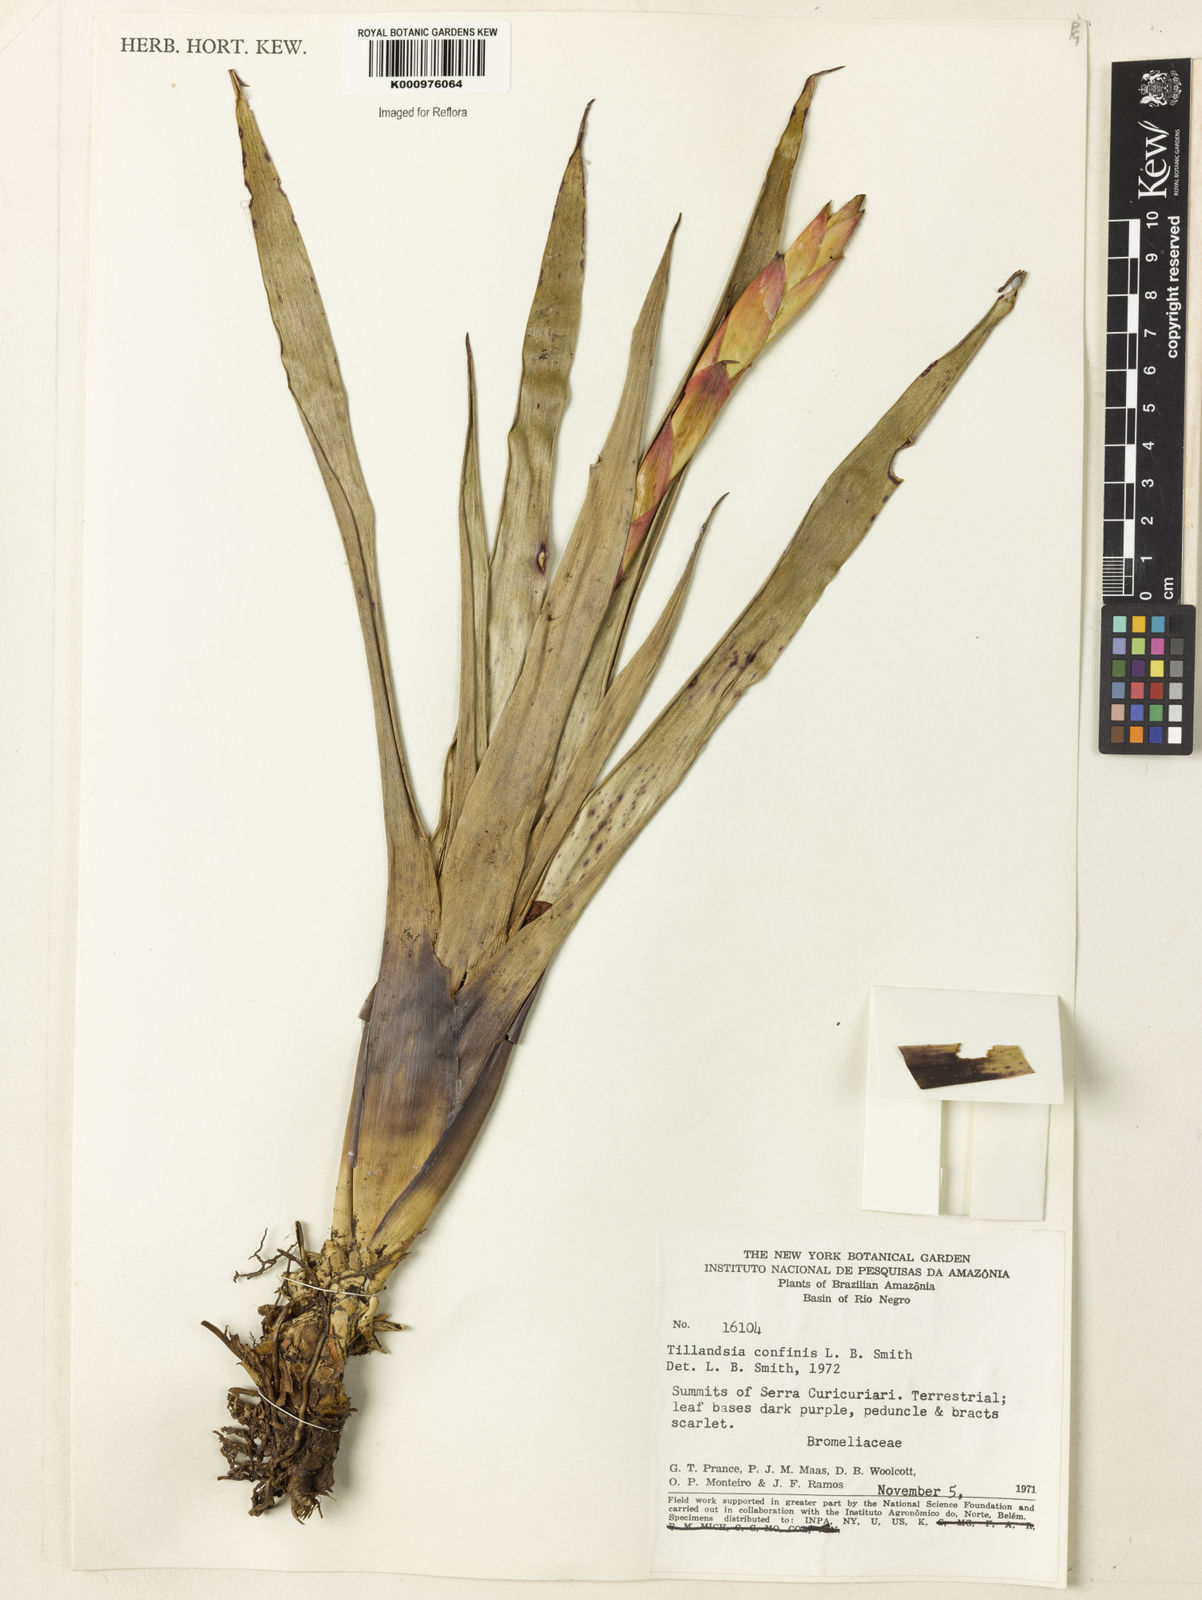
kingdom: Plantae
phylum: Tracheophyta
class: Liliopsida
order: Poales
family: Bromeliaceae
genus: Tillandsia
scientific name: Tillandsia confinis
